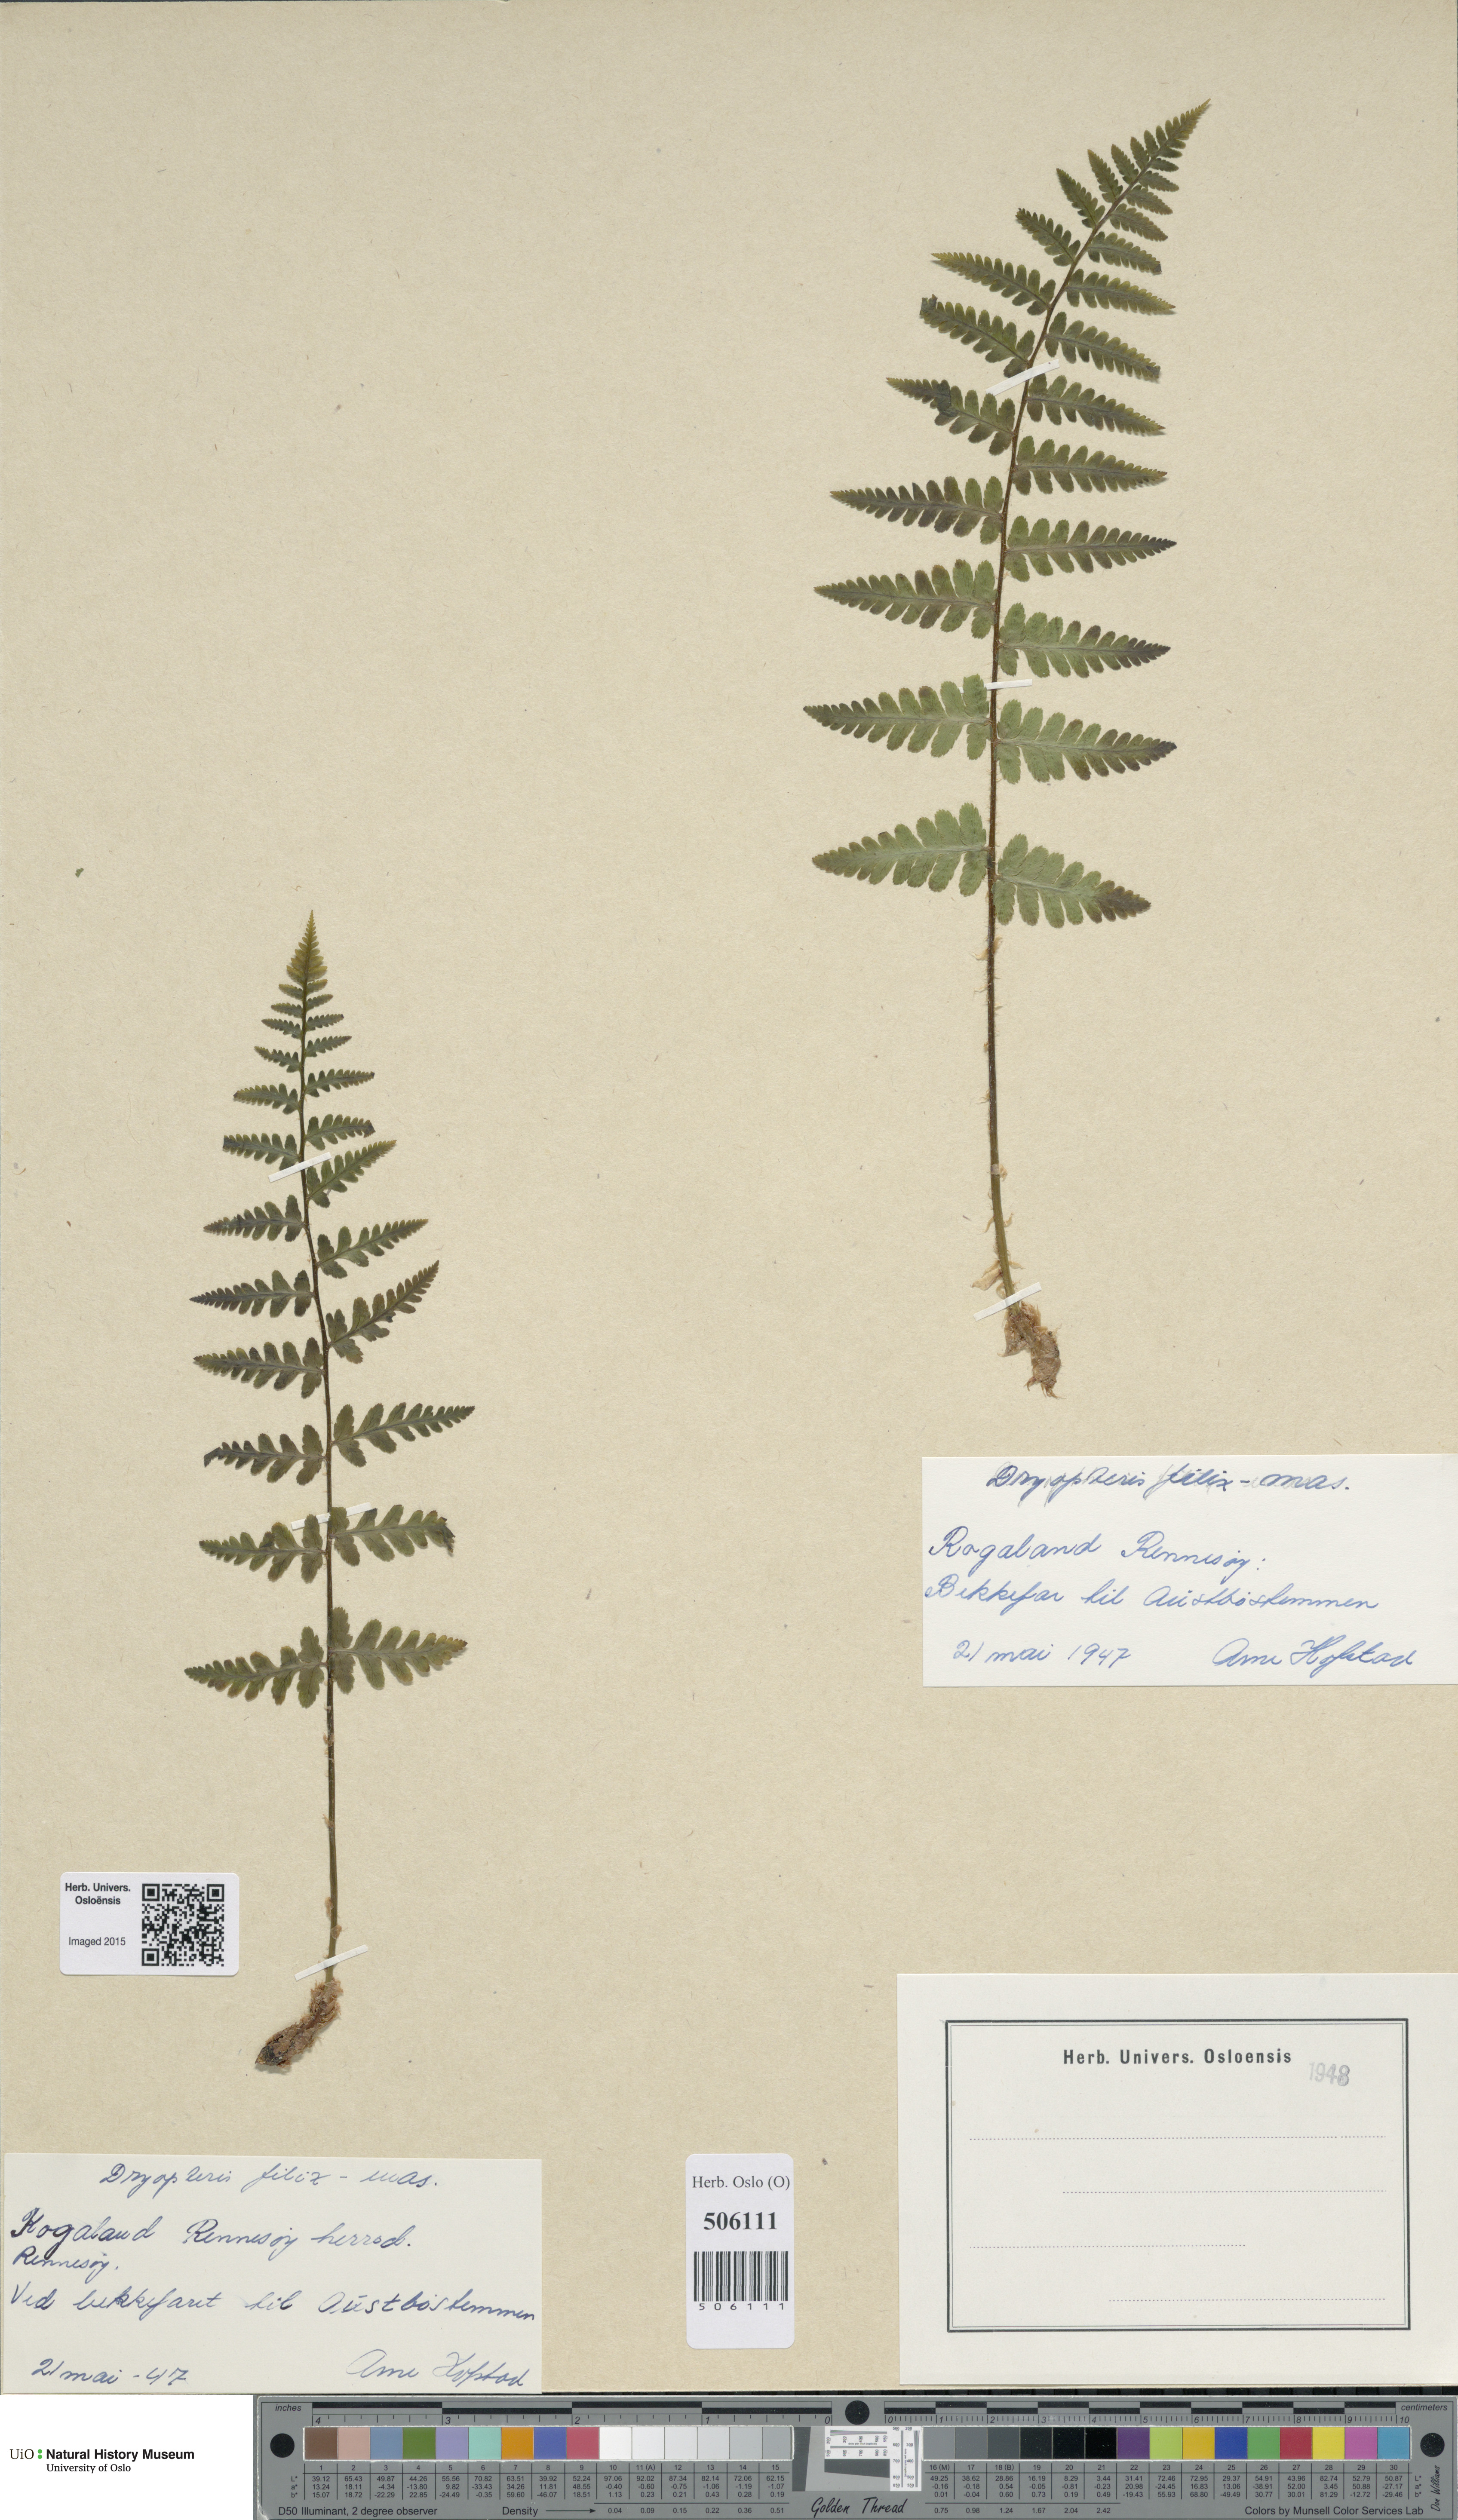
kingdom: Plantae
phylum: Tracheophyta
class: Polypodiopsida
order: Polypodiales
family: Dryopteridaceae
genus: Dryopteris
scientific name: Dryopteris filix-mas
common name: Male fern
